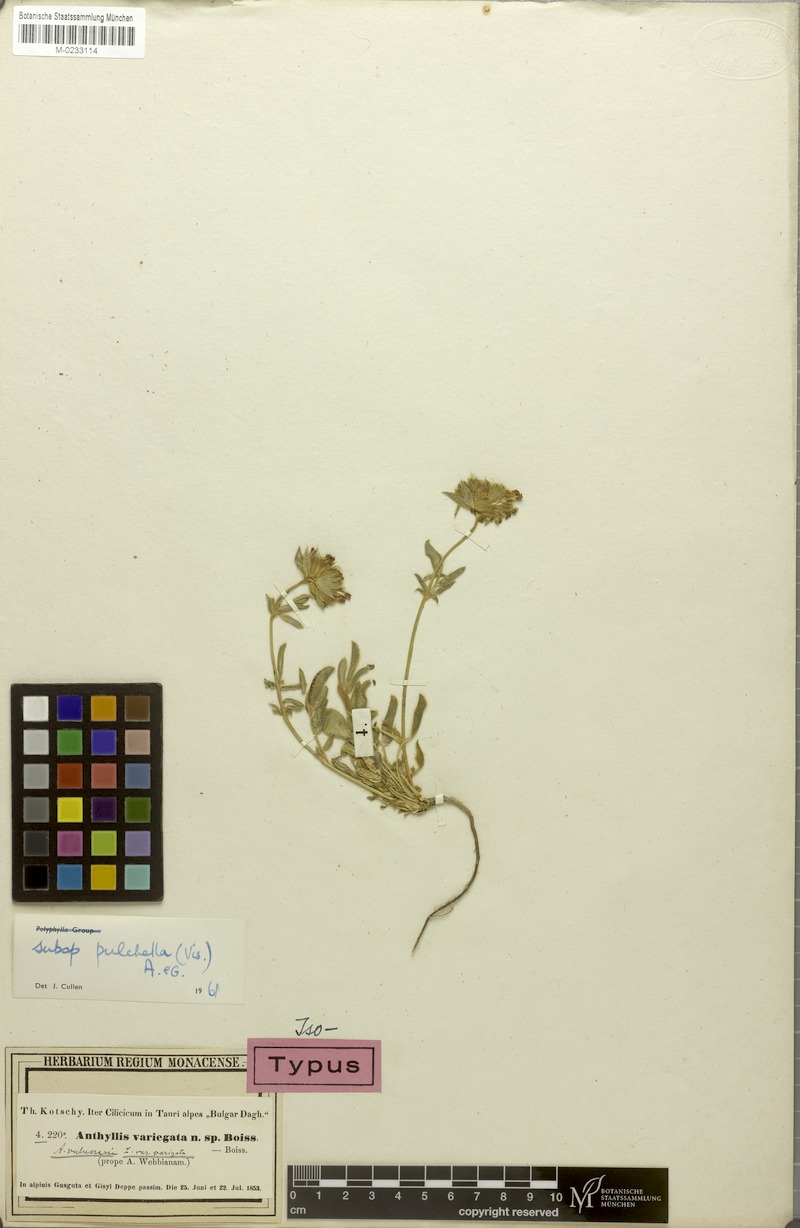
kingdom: Plantae
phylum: Tracheophyta
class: Magnoliopsida
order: Fabales
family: Fabaceae
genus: Anthyllis
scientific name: Anthyllis vulneraria
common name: Kidney vetch
